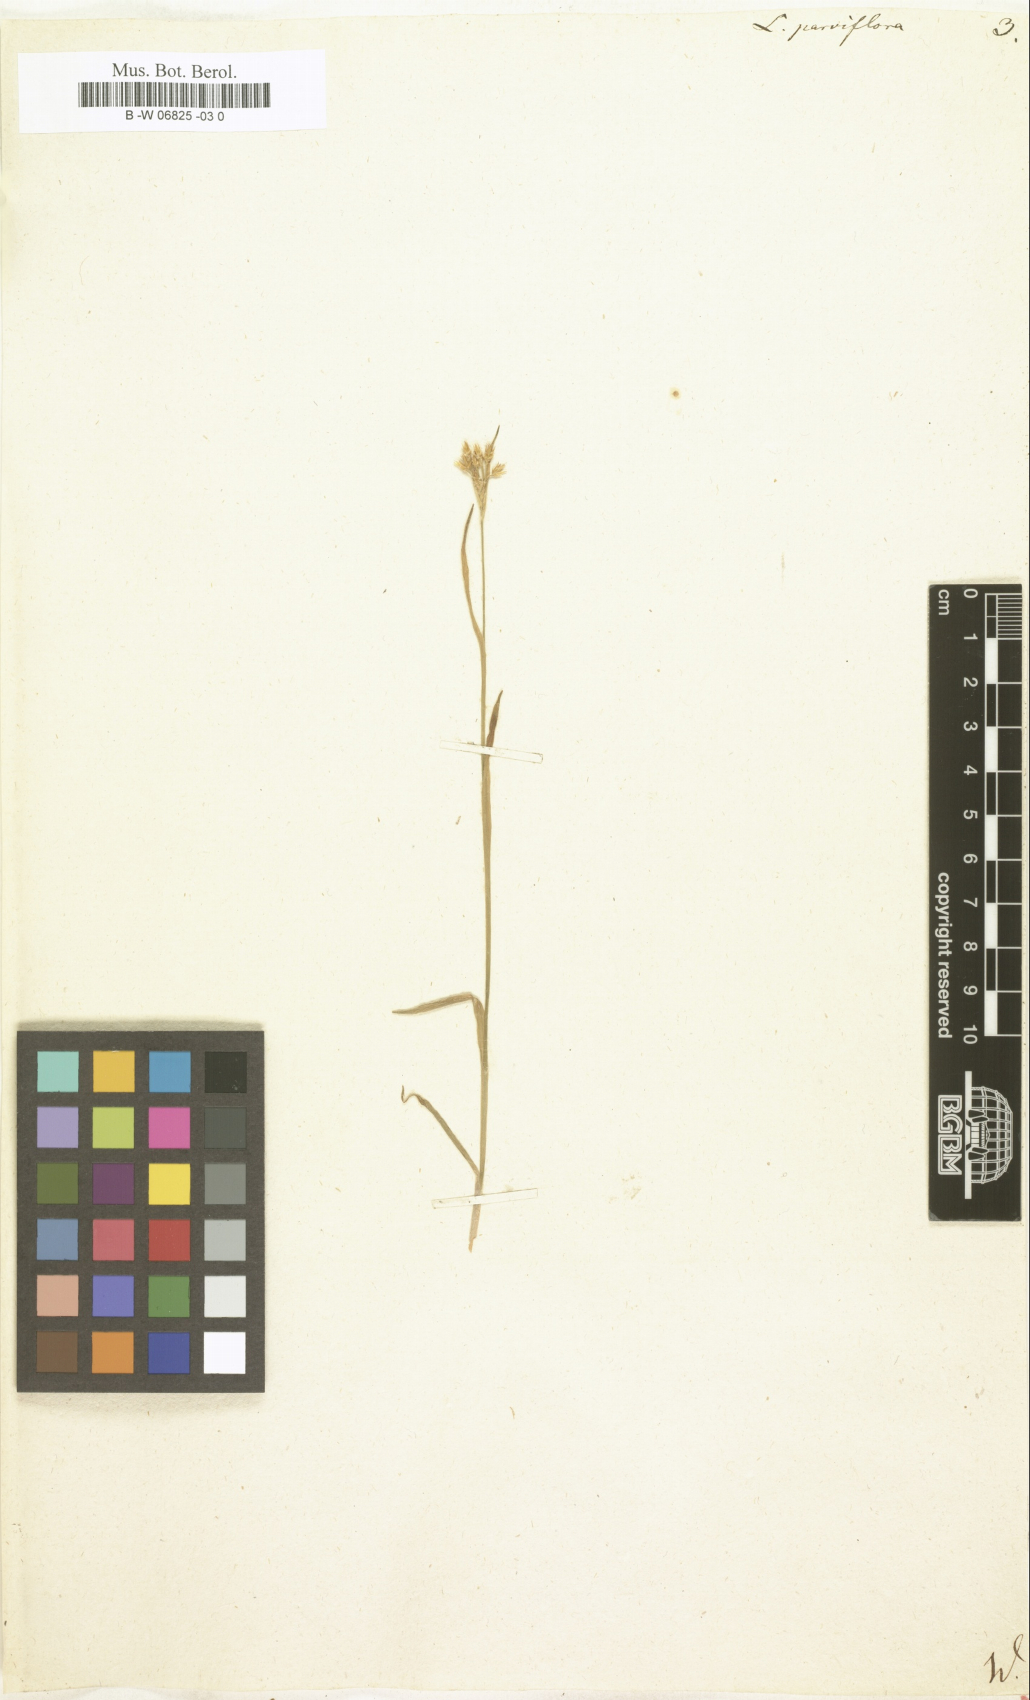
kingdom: Plantae
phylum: Tracheophyta
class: Liliopsida
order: Poales
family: Juncaceae
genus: Luzula
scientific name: Luzula parviflora
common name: Millet woodrush
